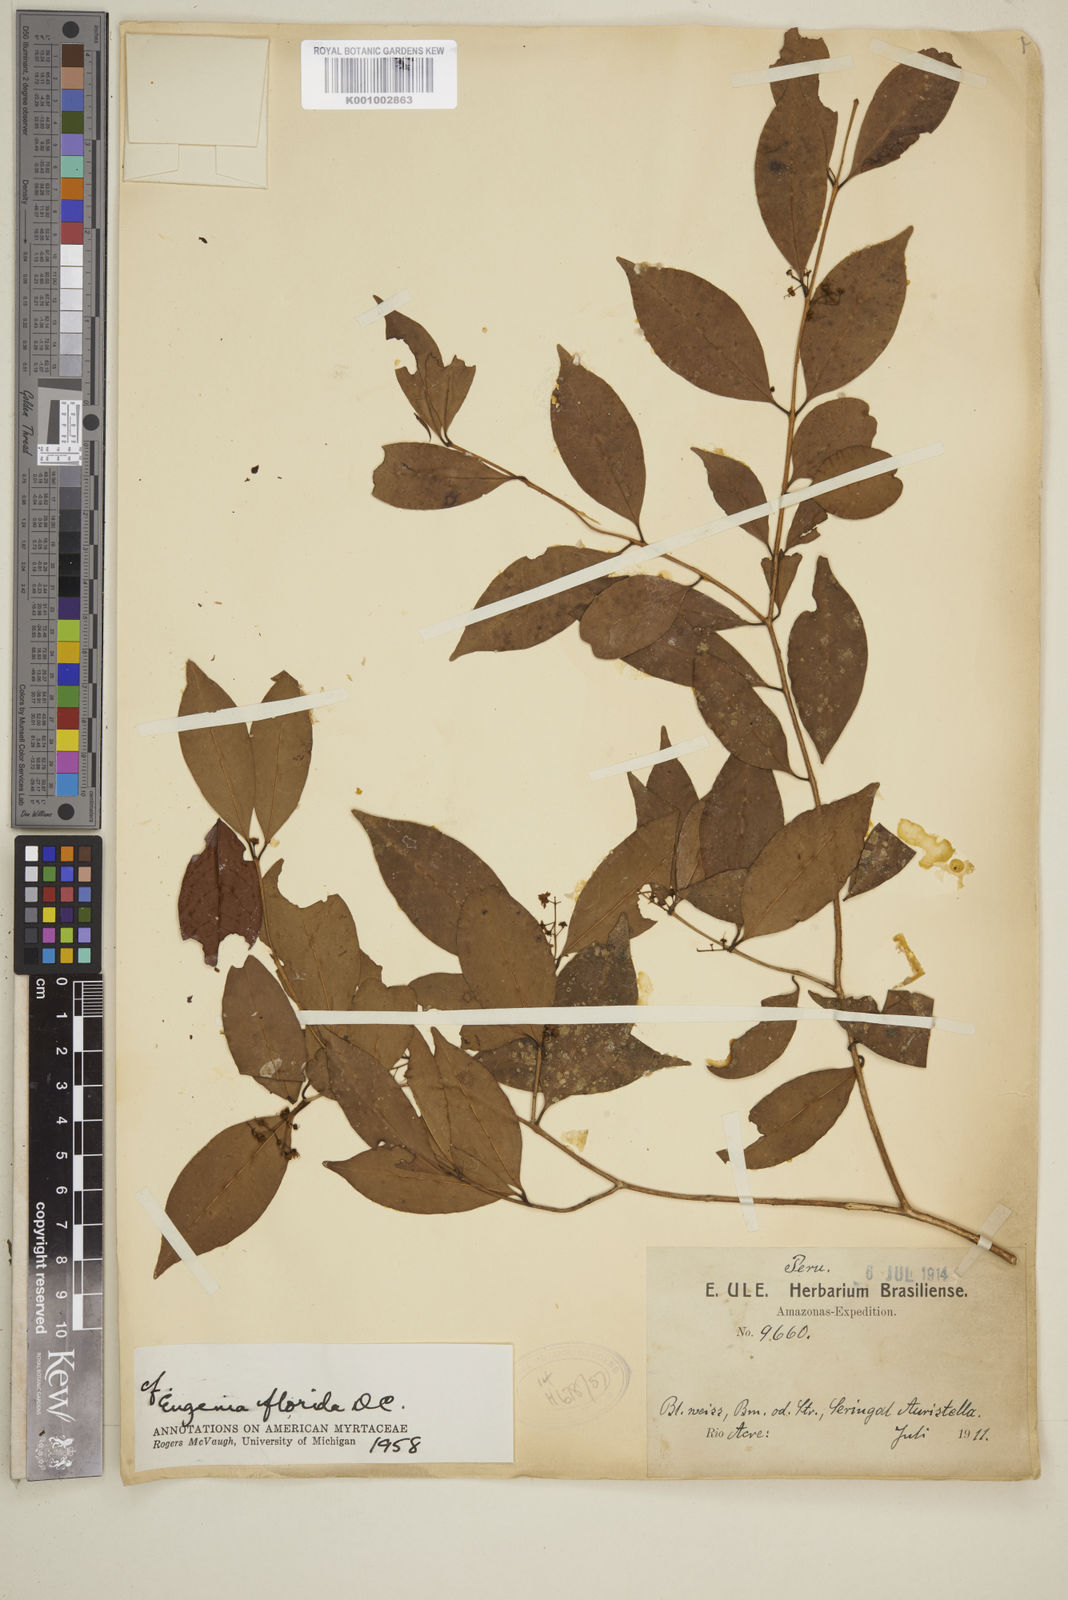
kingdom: Plantae
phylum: Tracheophyta
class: Magnoliopsida
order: Myrtales
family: Myrtaceae
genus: Eugenia
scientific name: Eugenia florida
